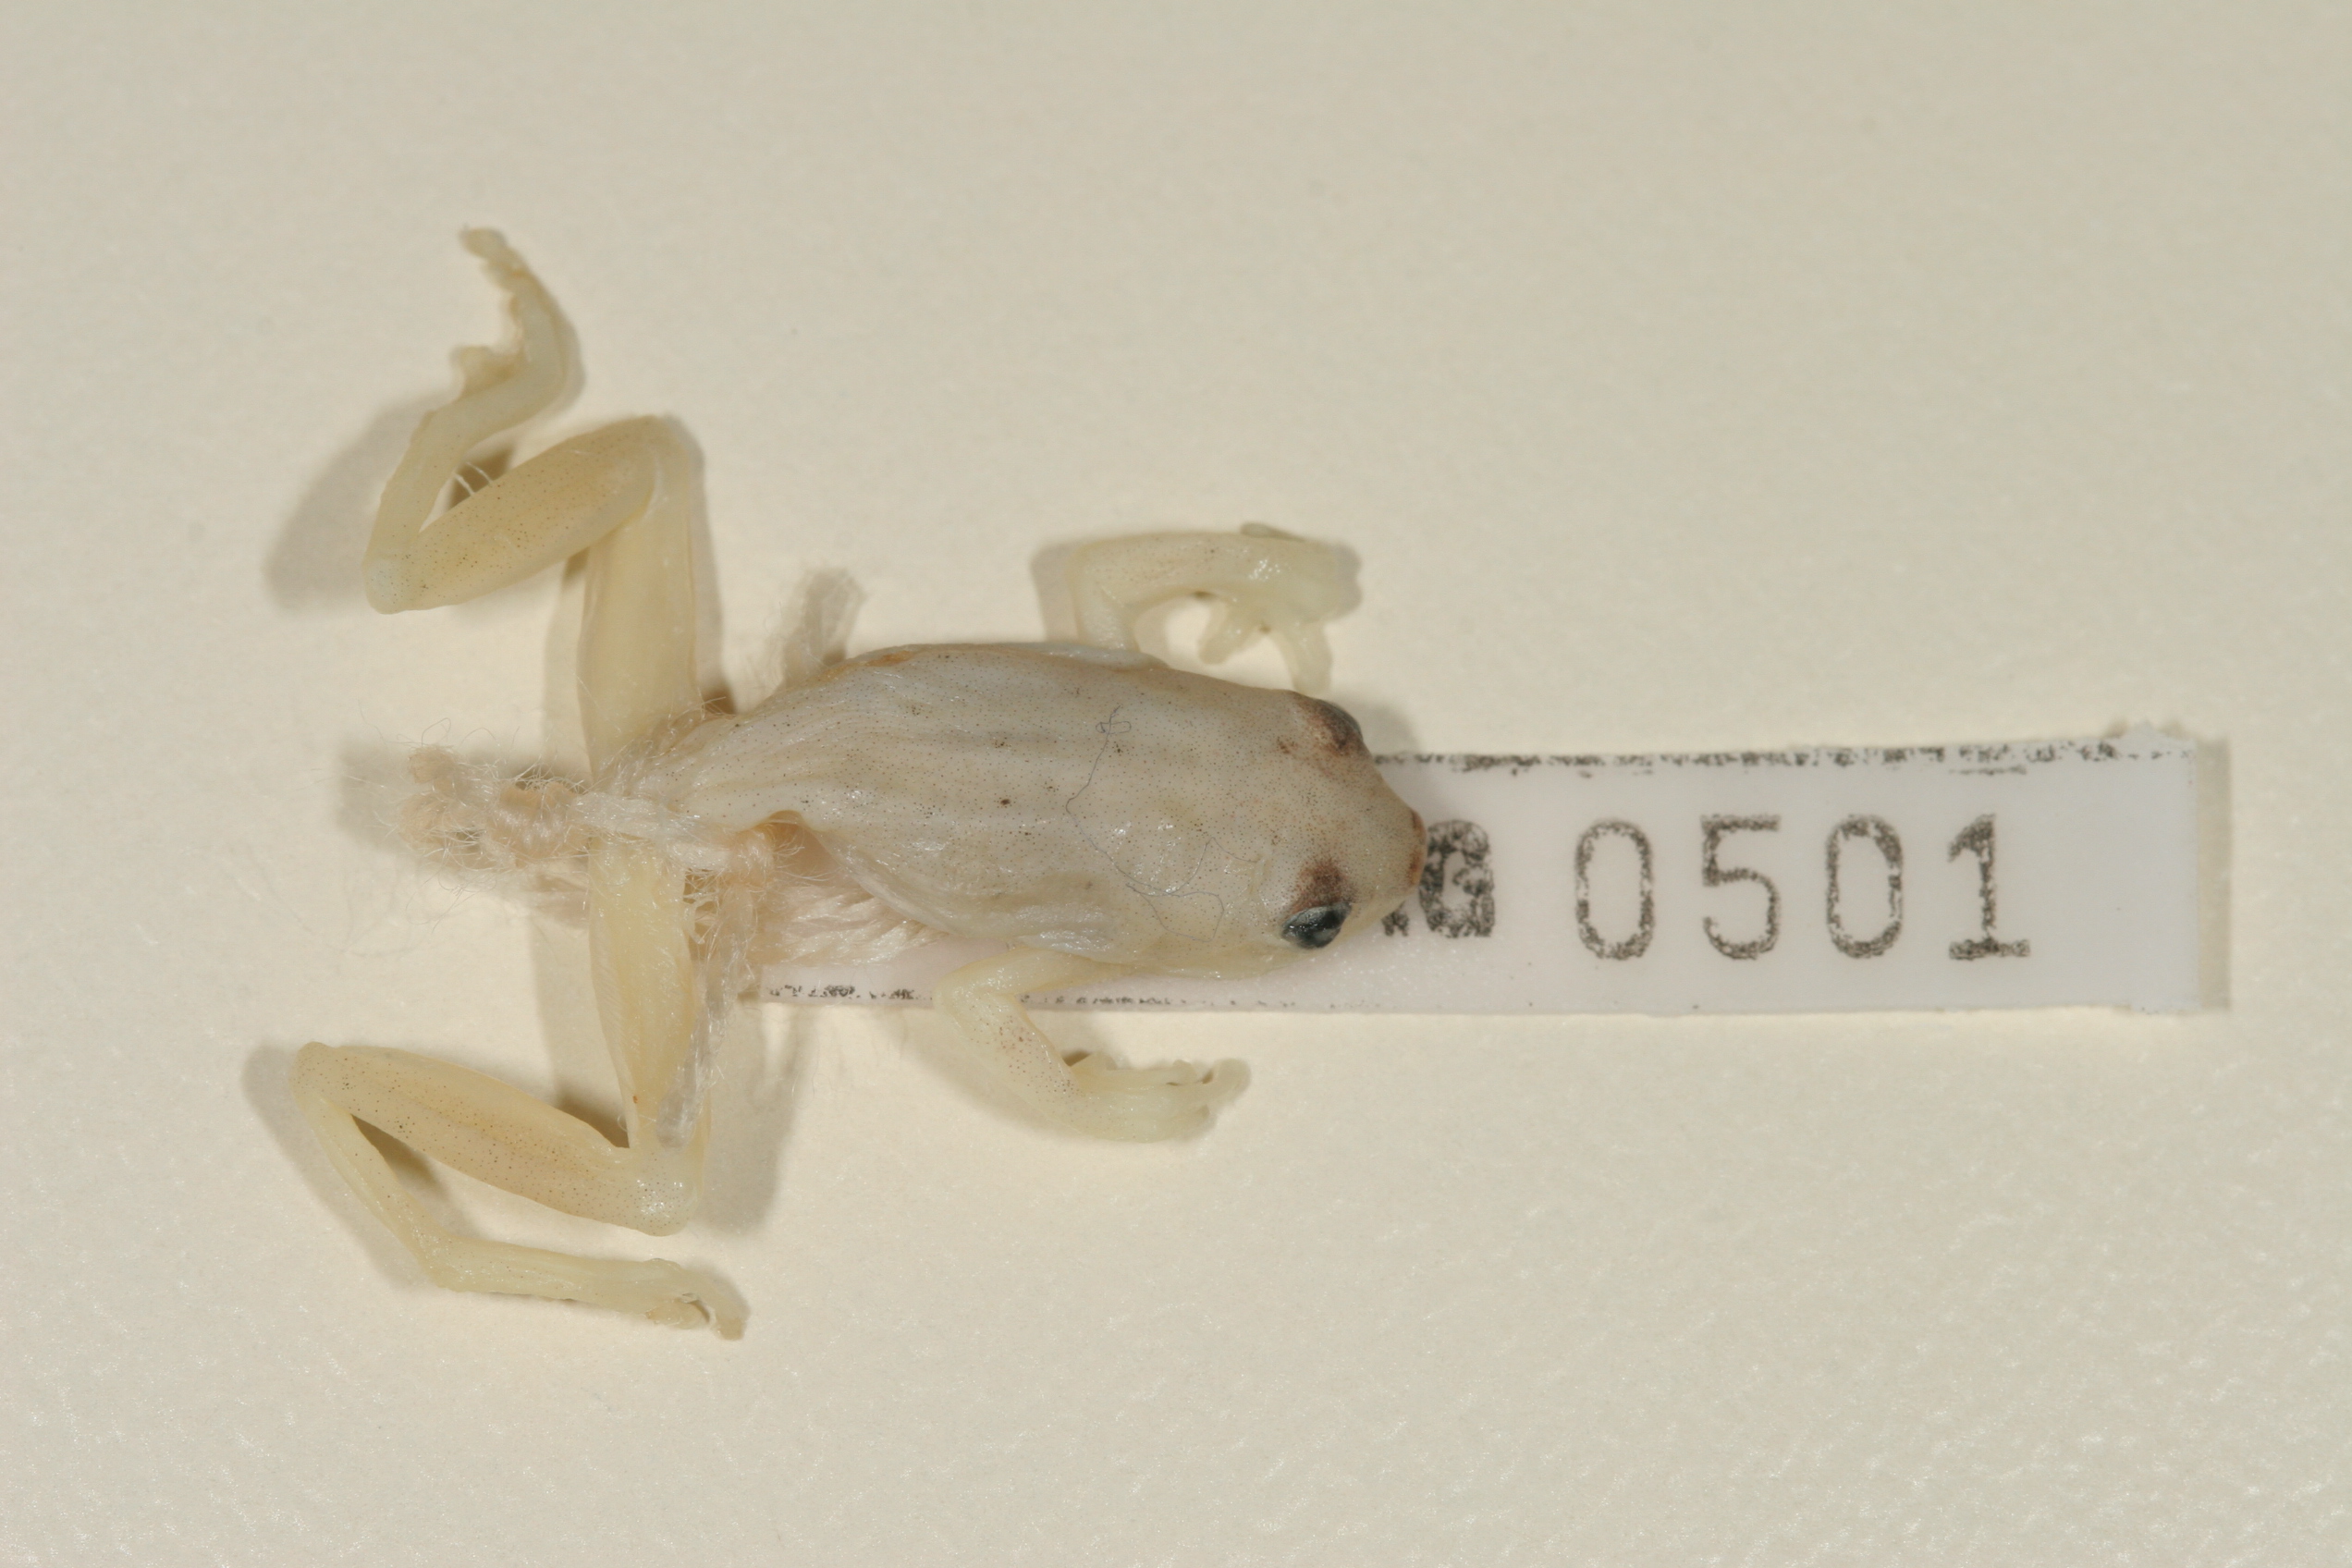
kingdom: Animalia
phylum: Chordata
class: Amphibia
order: Anura
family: Hyperoliidae
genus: Hyperolius
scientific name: Hyperolius pusillus
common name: Water lily reed frog
